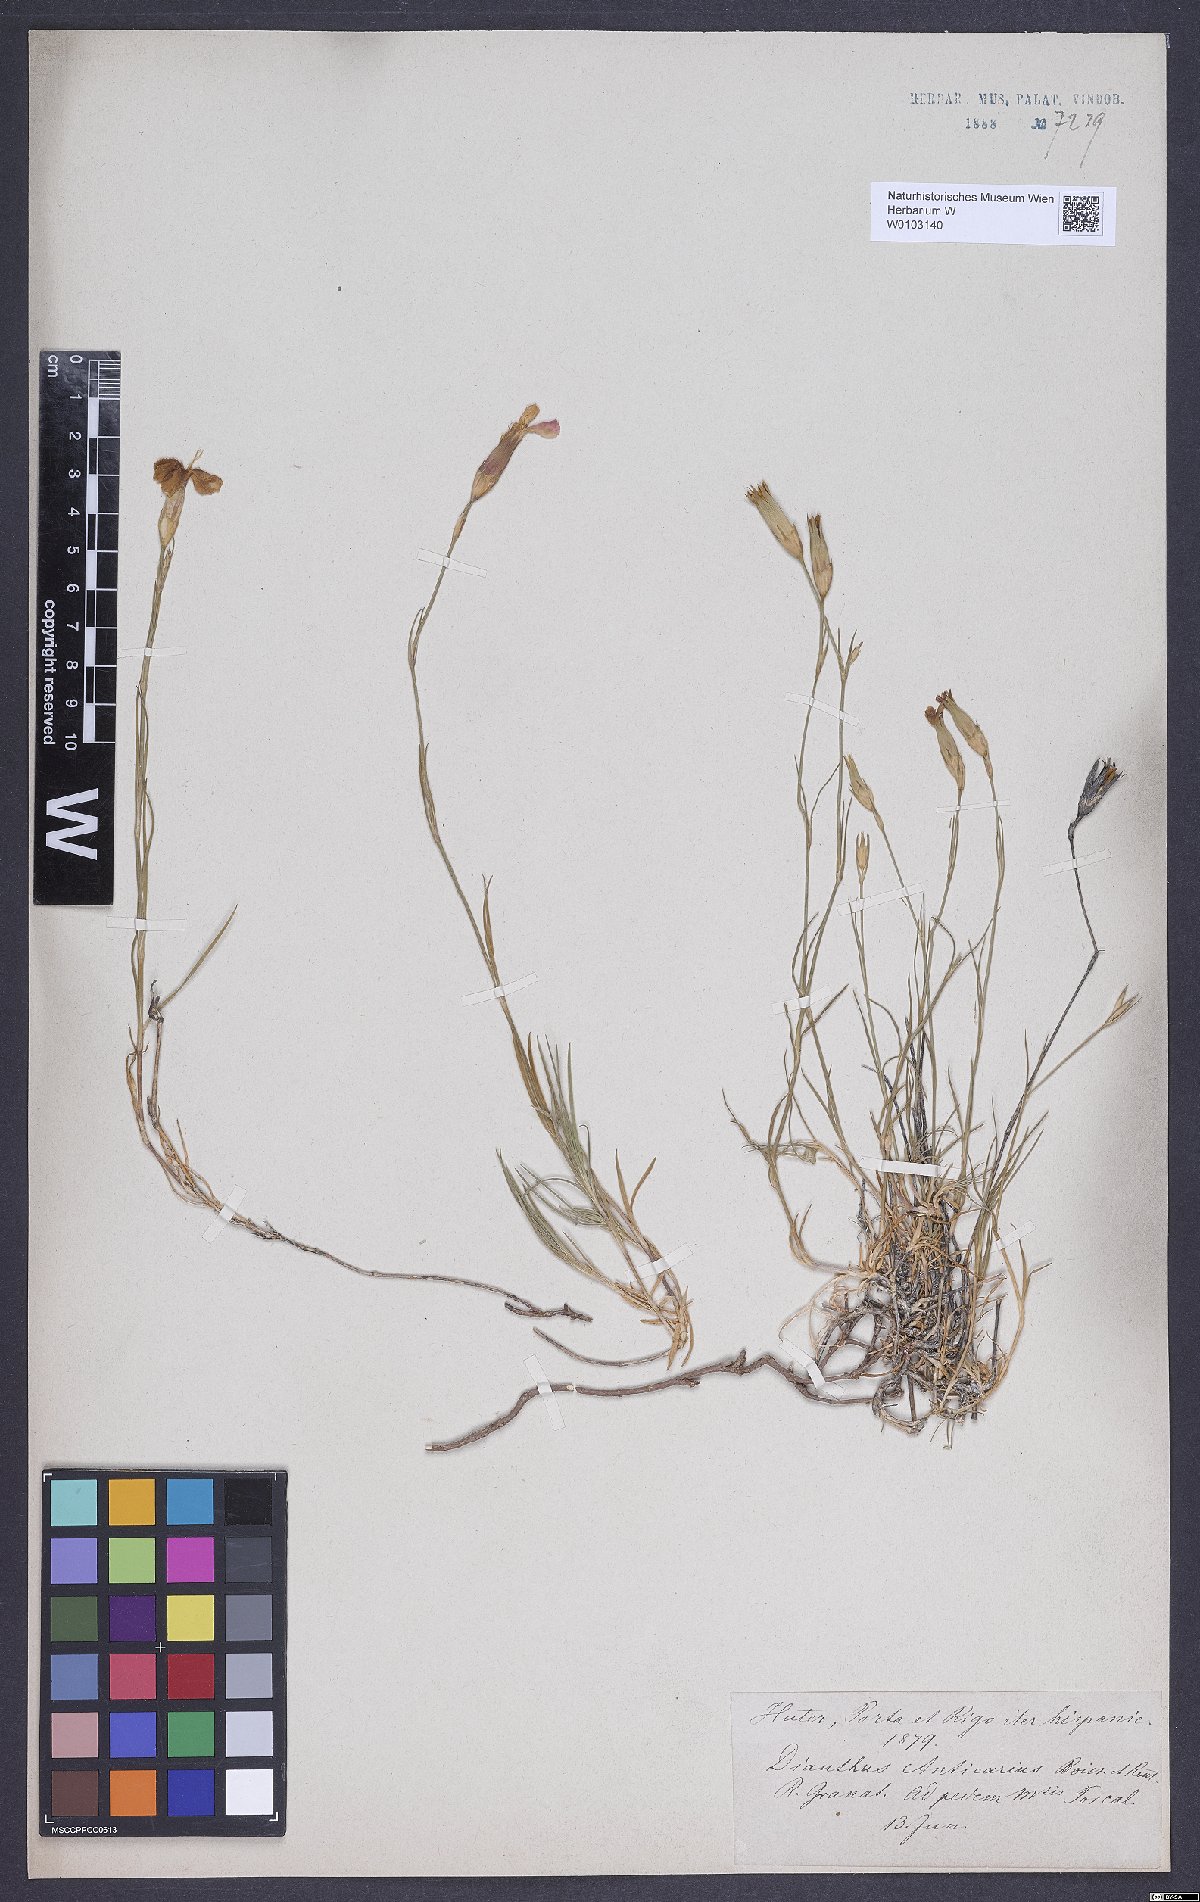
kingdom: Plantae
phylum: Tracheophyta
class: Magnoliopsida
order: Caryophyllales
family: Caryophyllaceae
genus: Dianthus
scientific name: Dianthus anticarius
